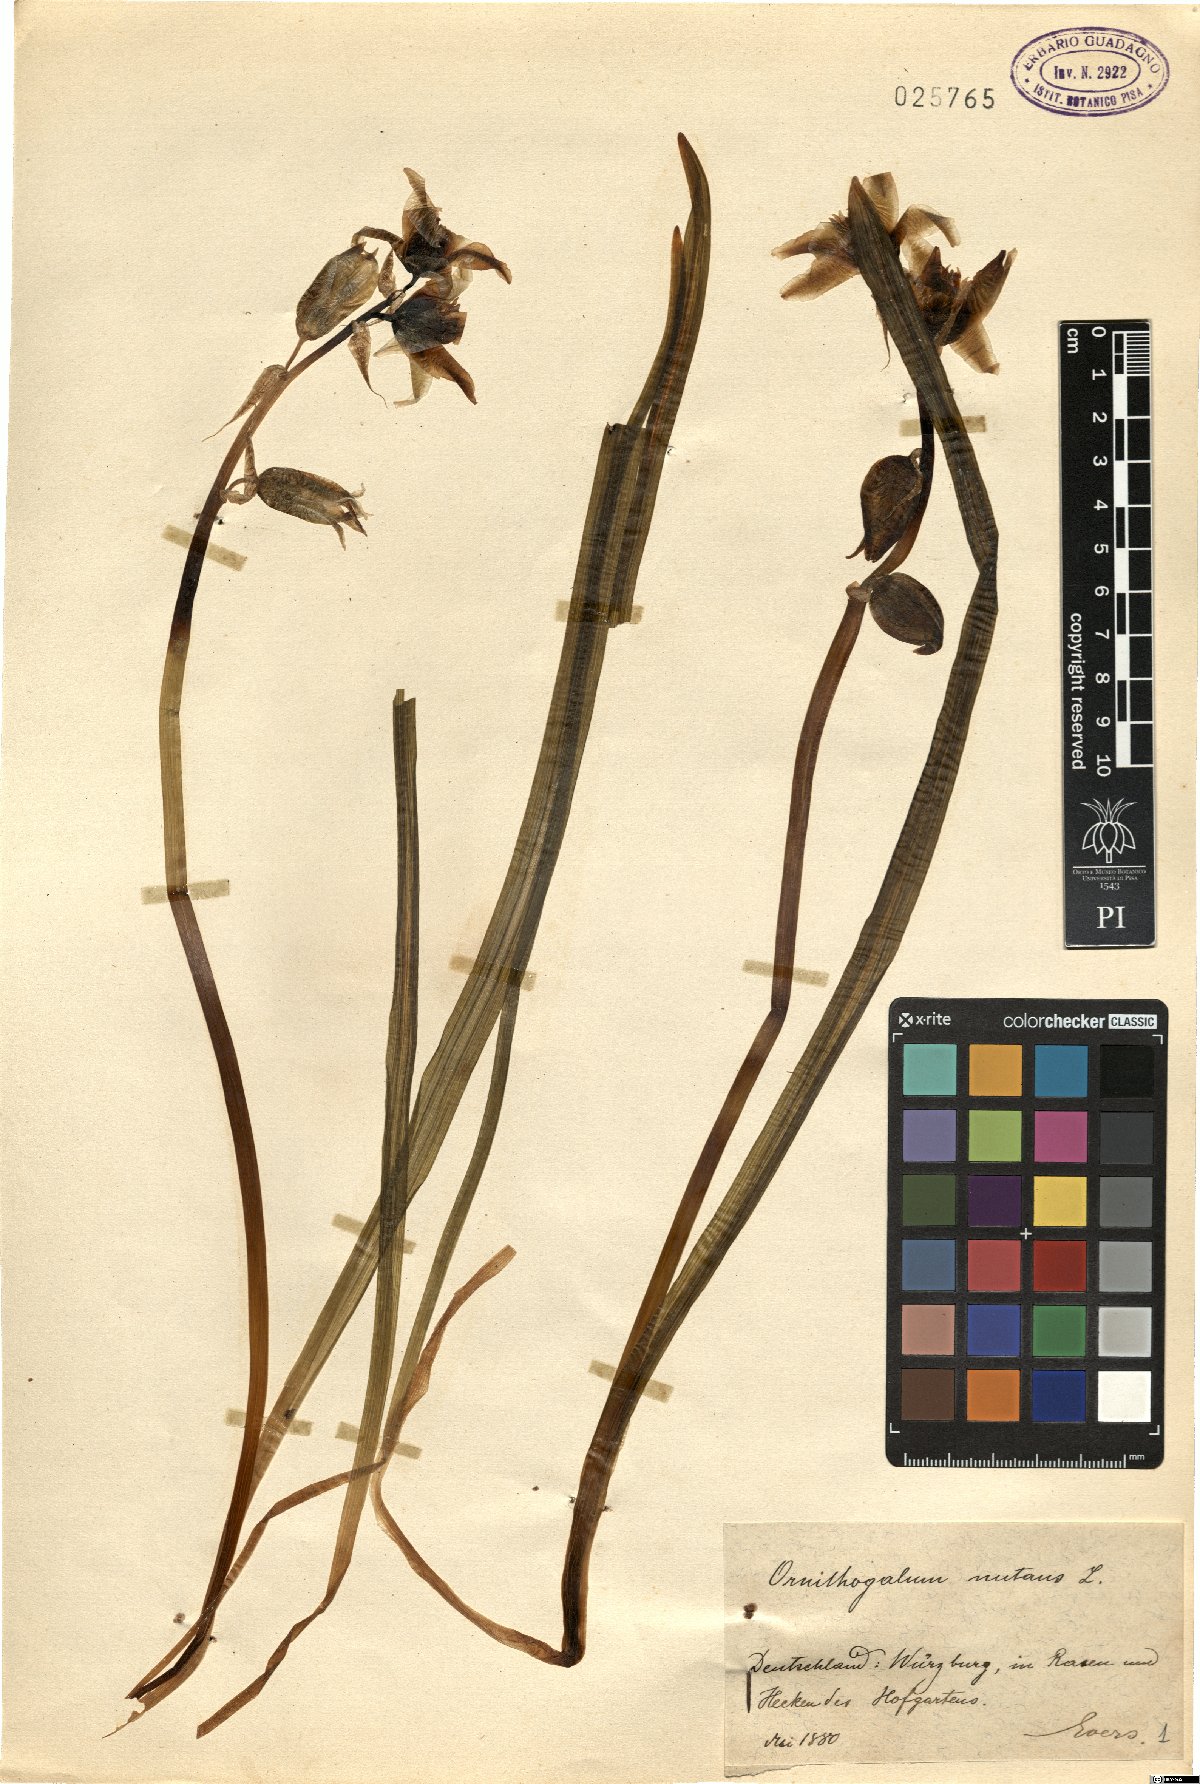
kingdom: Plantae
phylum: Tracheophyta
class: Liliopsida
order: Asparagales
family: Asparagaceae
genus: Ornithogalum
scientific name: Ornithogalum nutans
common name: Drooping star-of-bethlehem
